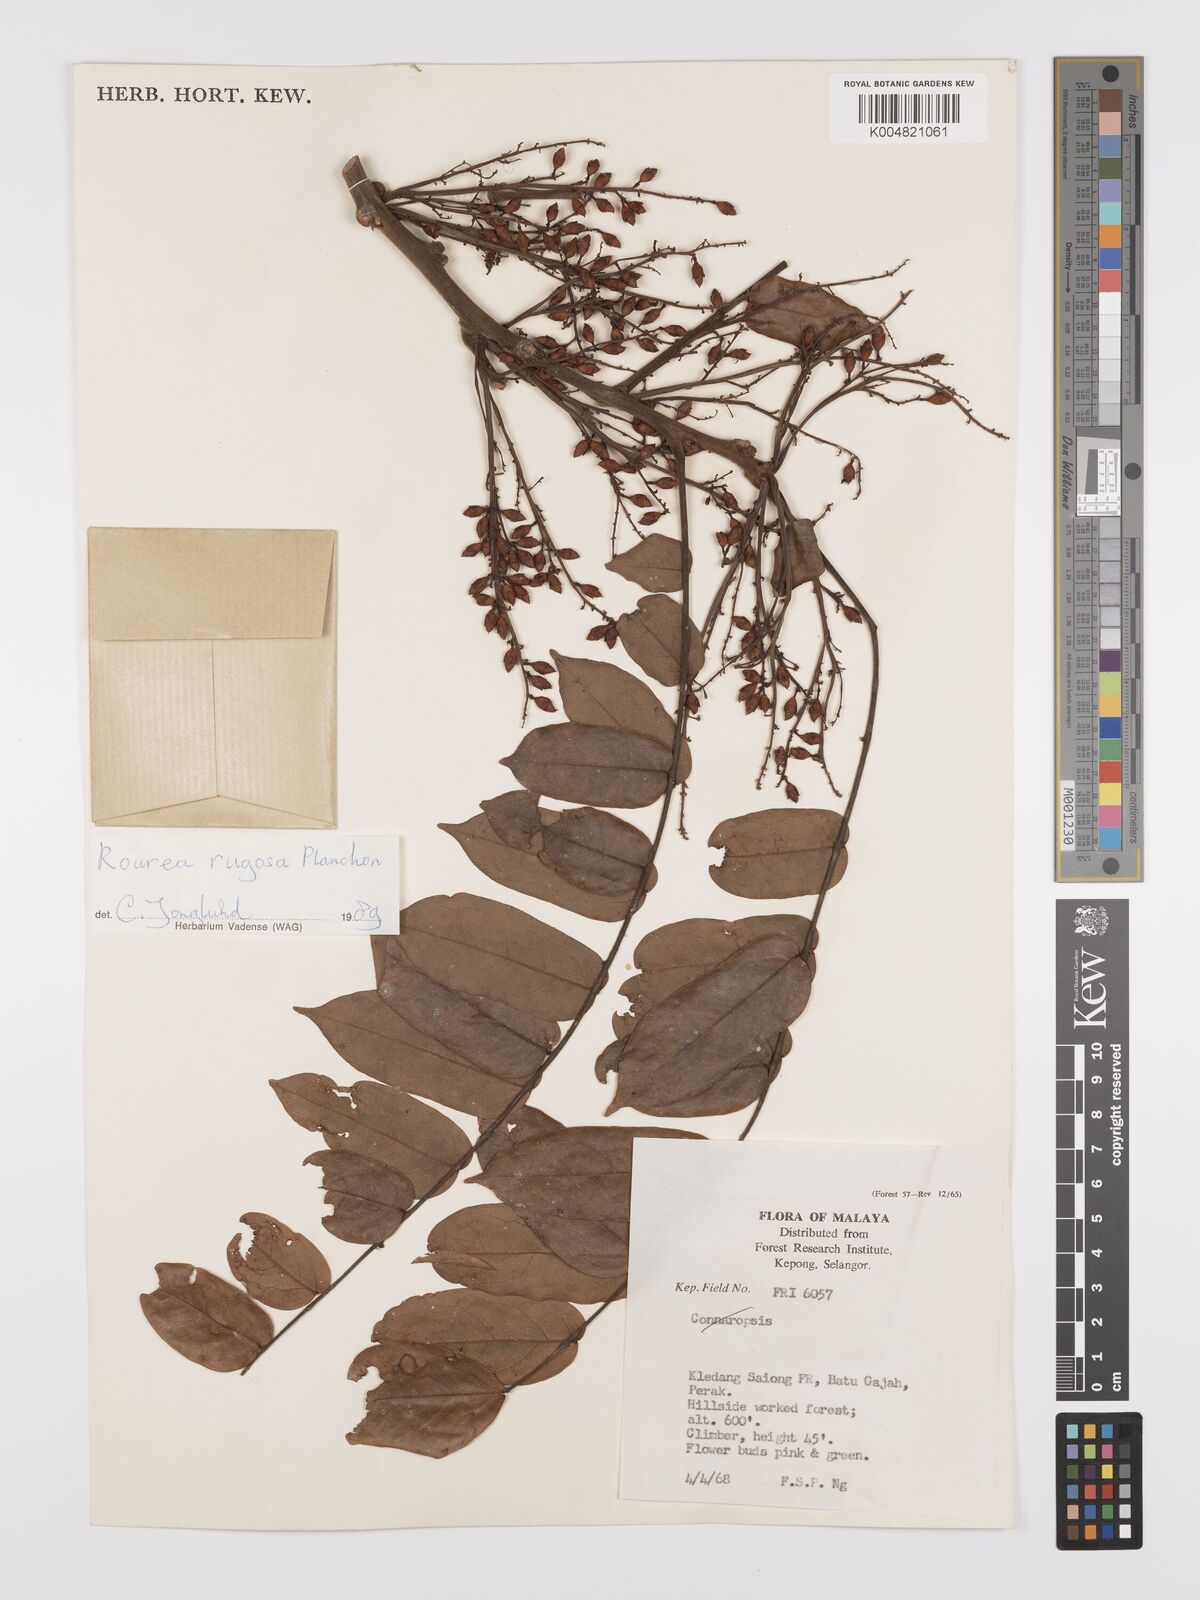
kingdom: Plantae
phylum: Tracheophyta
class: Magnoliopsida
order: Oxalidales
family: Connaraceae
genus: Rourea
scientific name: Rourea rugosa
